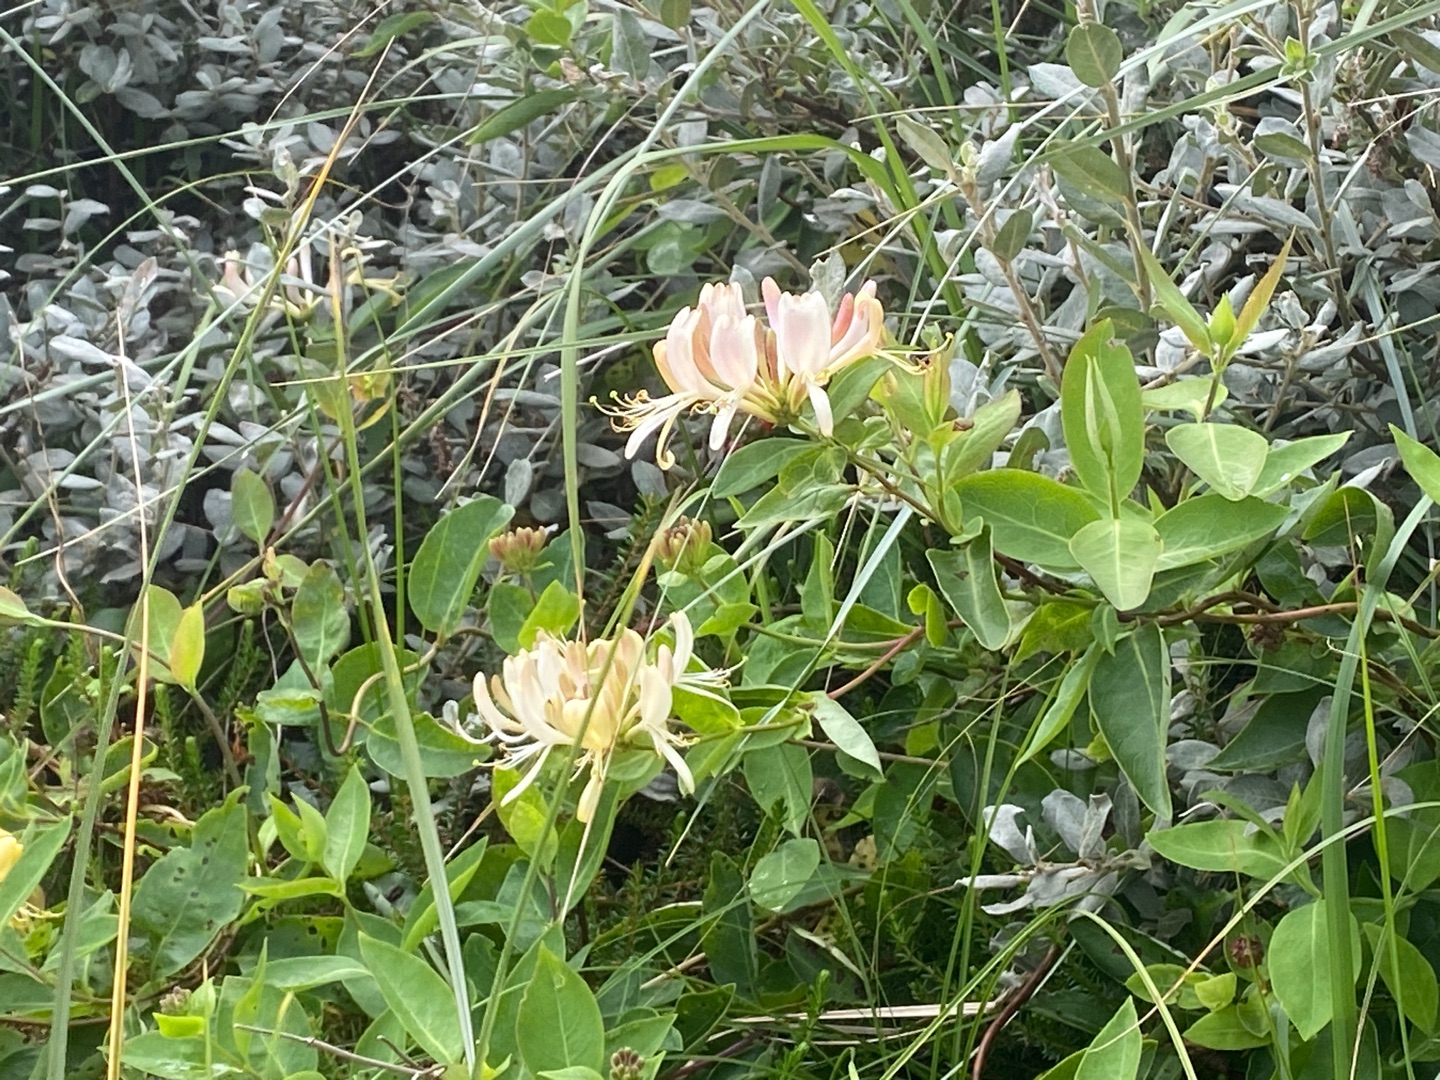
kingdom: Plantae
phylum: Tracheophyta
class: Magnoliopsida
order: Dipsacales
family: Caprifoliaceae
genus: Lonicera
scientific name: Lonicera periclymenum
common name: Almindelig gedeblad
